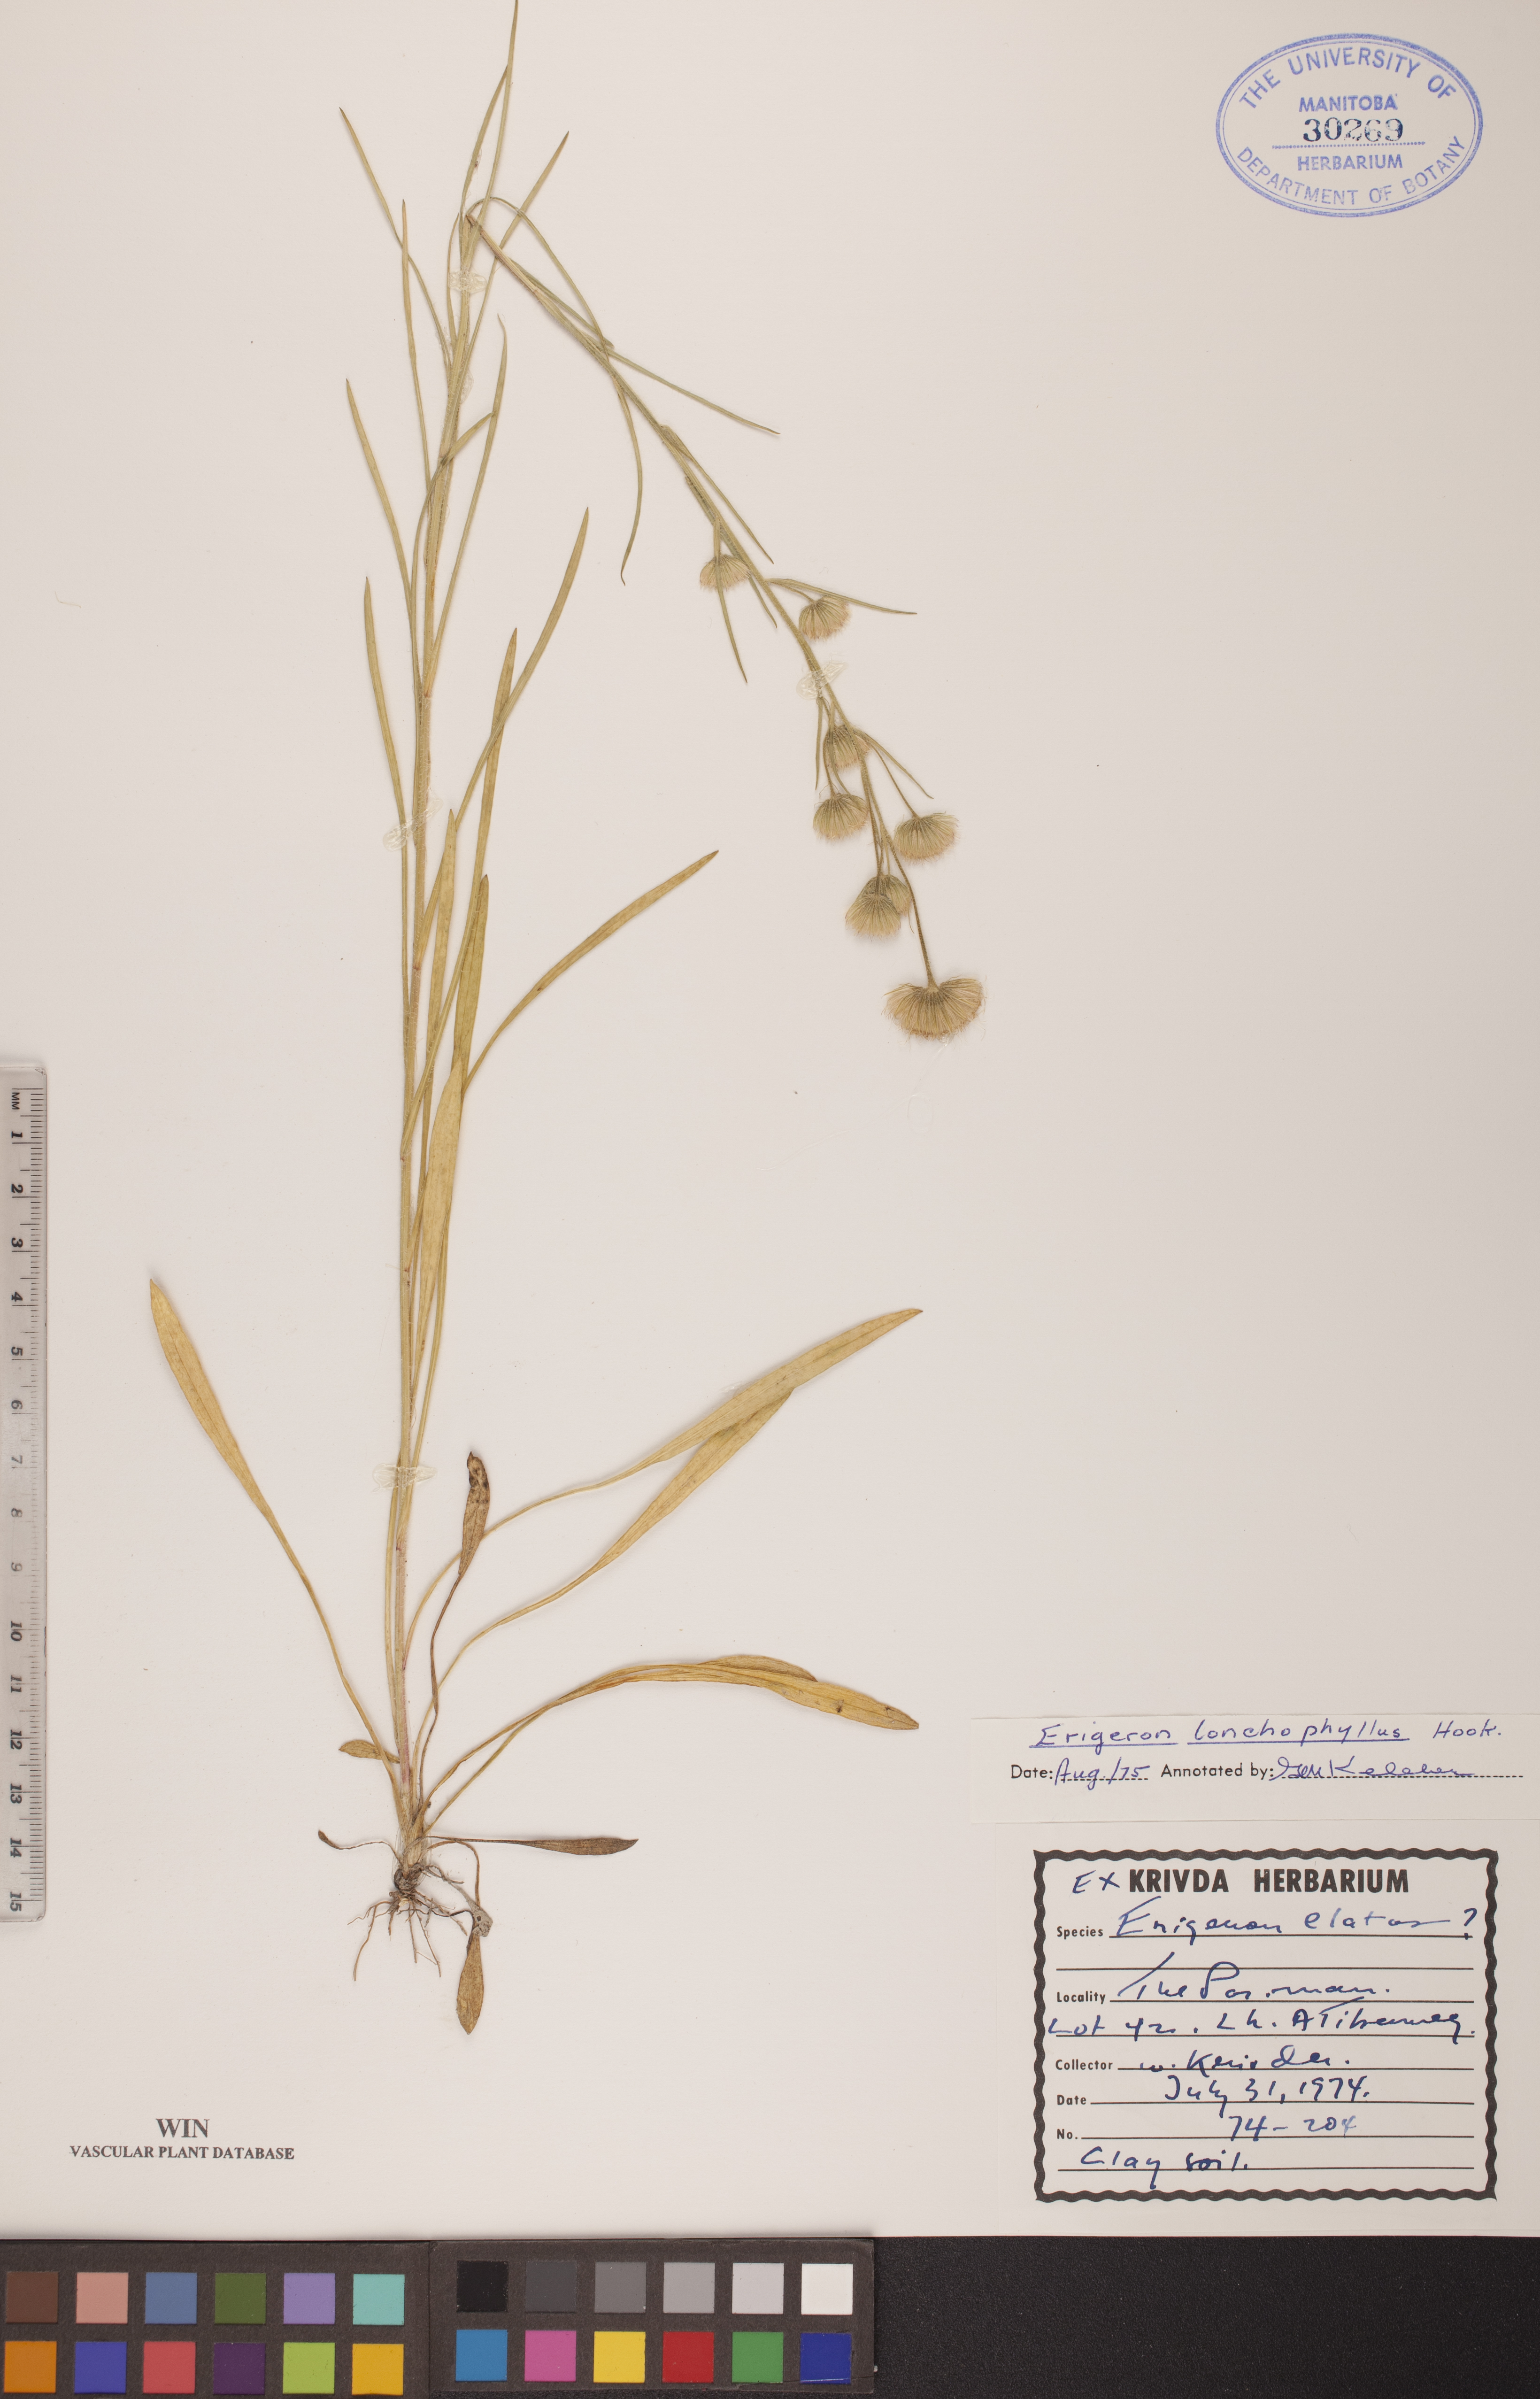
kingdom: Plantae
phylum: Tracheophyta
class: Magnoliopsida
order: Asterales
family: Asteraceae
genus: Erigeron
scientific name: Erigeron lonchophyllus
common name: Short-ray fleabane
